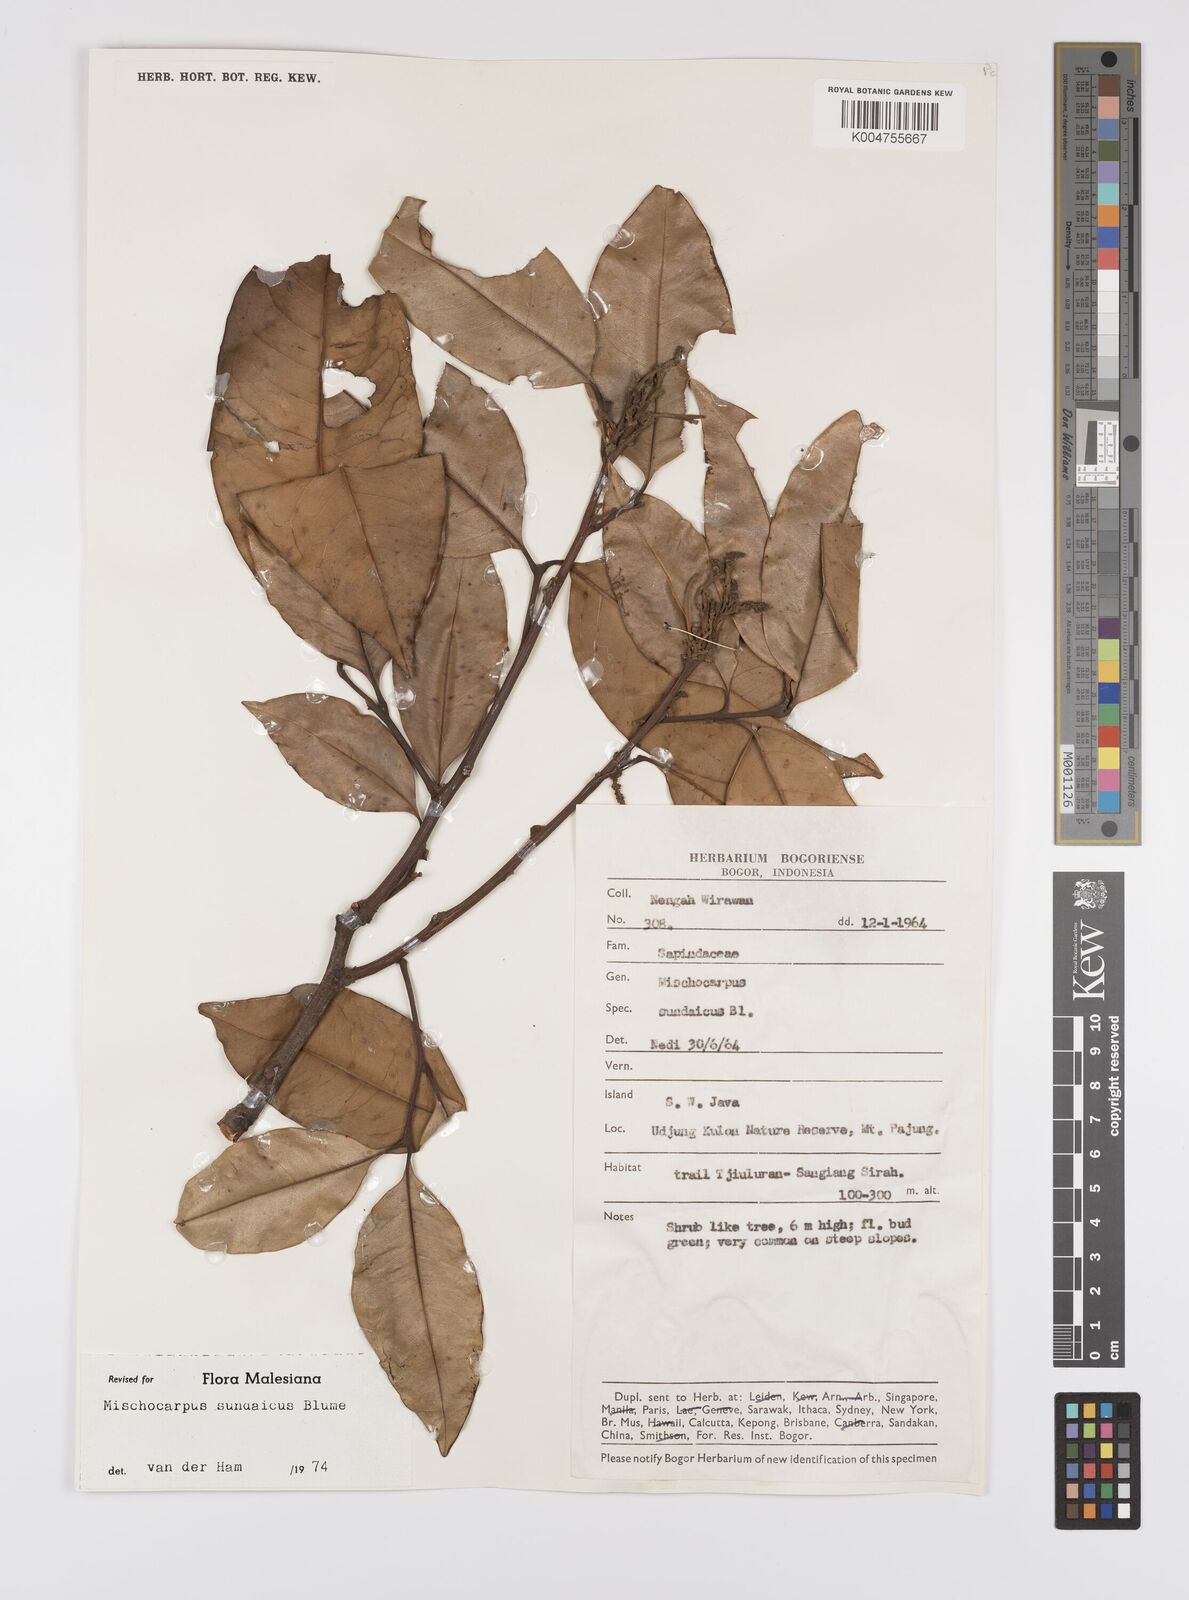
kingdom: Plantae
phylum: Tracheophyta
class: Magnoliopsida
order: Sapindales
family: Sapindaceae
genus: Mischocarpus
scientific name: Mischocarpus sundaicus
